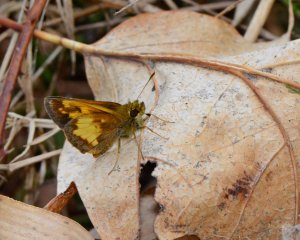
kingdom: Animalia
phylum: Arthropoda
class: Insecta
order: Lepidoptera
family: Hesperiidae
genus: Lon
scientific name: Lon hobomok
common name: Hobomok Skipper
